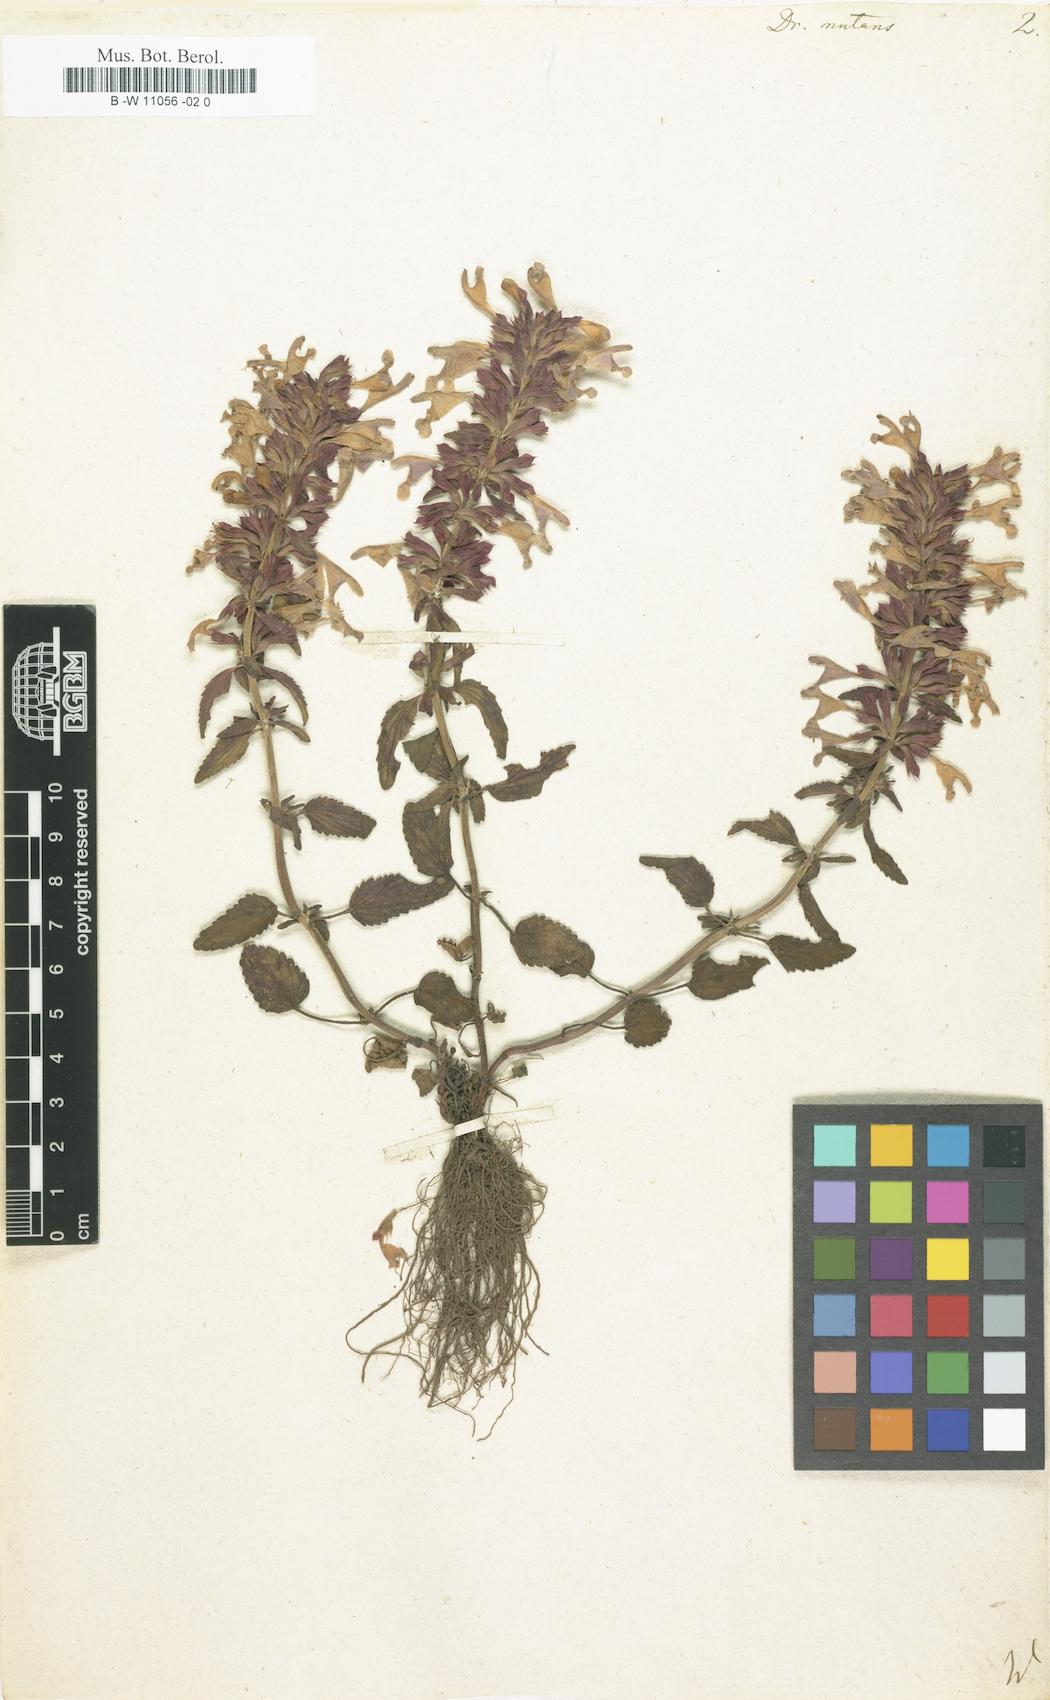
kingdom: Plantae
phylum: Tracheophyta
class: Magnoliopsida
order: Lamiales
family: Lamiaceae
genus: Dracocephalum
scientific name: Dracocephalum nutans
